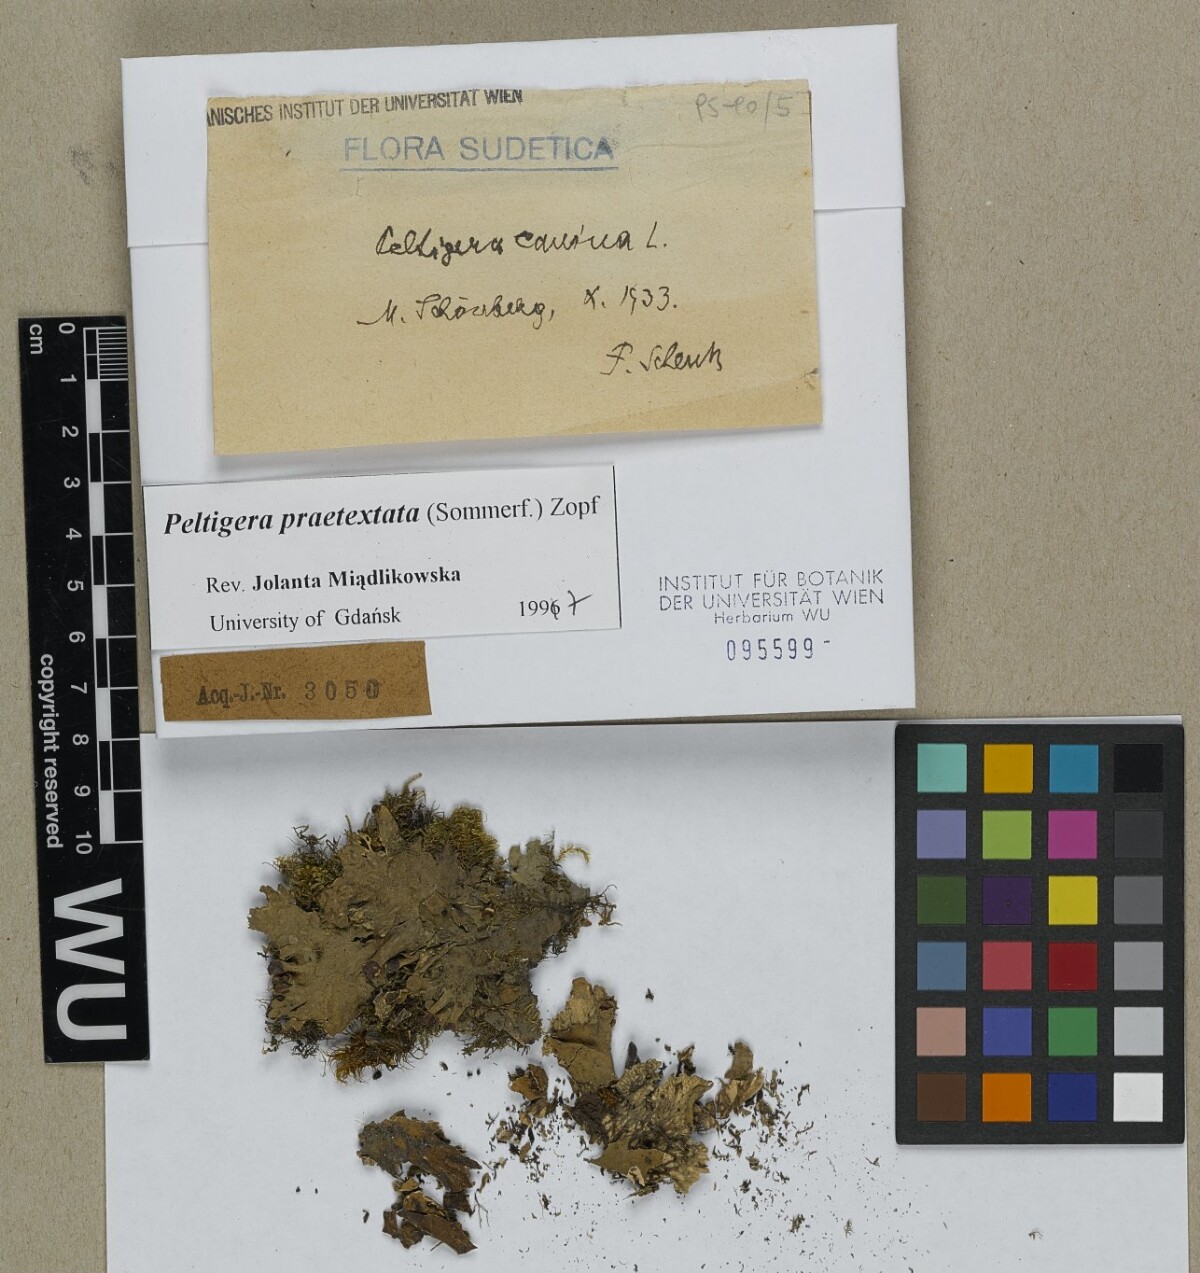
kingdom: Fungi
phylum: Ascomycota
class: Lecanoromycetes
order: Peltigerales
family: Peltigeraceae
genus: Peltigera
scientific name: Peltigera canina
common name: Dog pelt lichen
